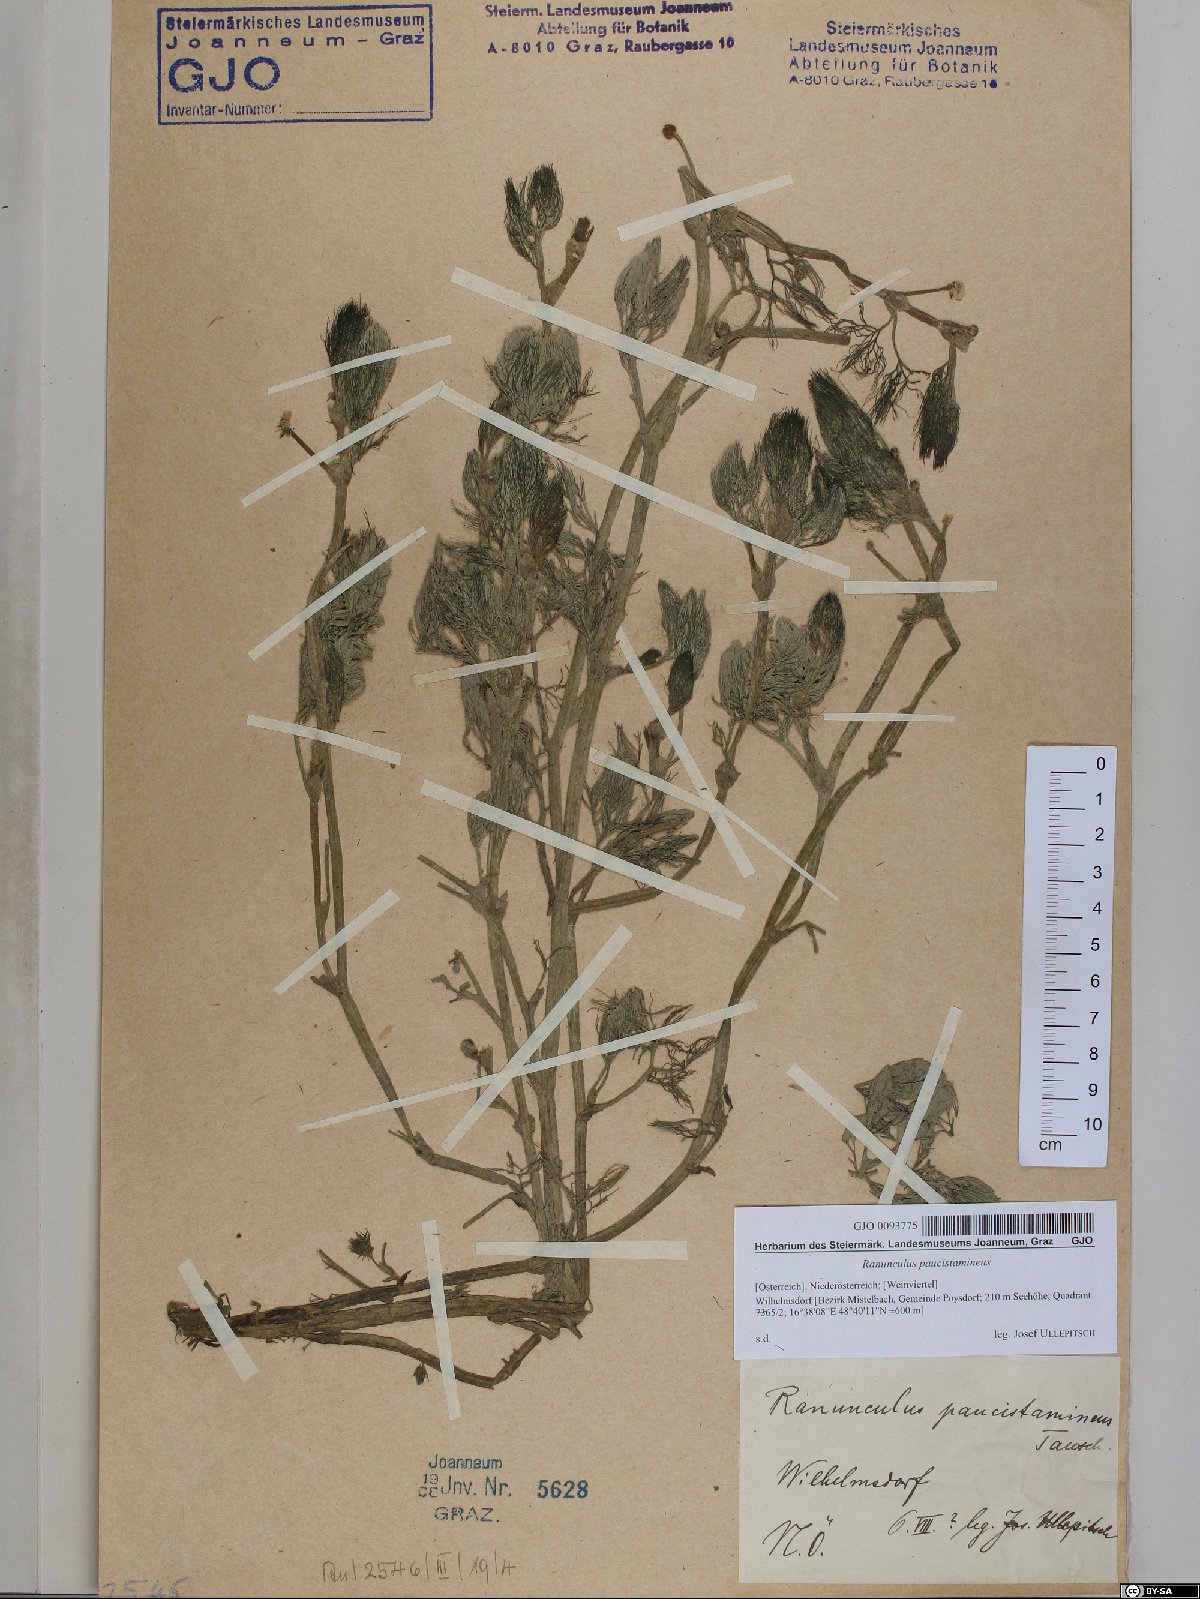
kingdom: Plantae
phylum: Tracheophyta
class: Magnoliopsida
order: Ranunculales
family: Ranunculaceae
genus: Ranunculus
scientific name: Ranunculus
